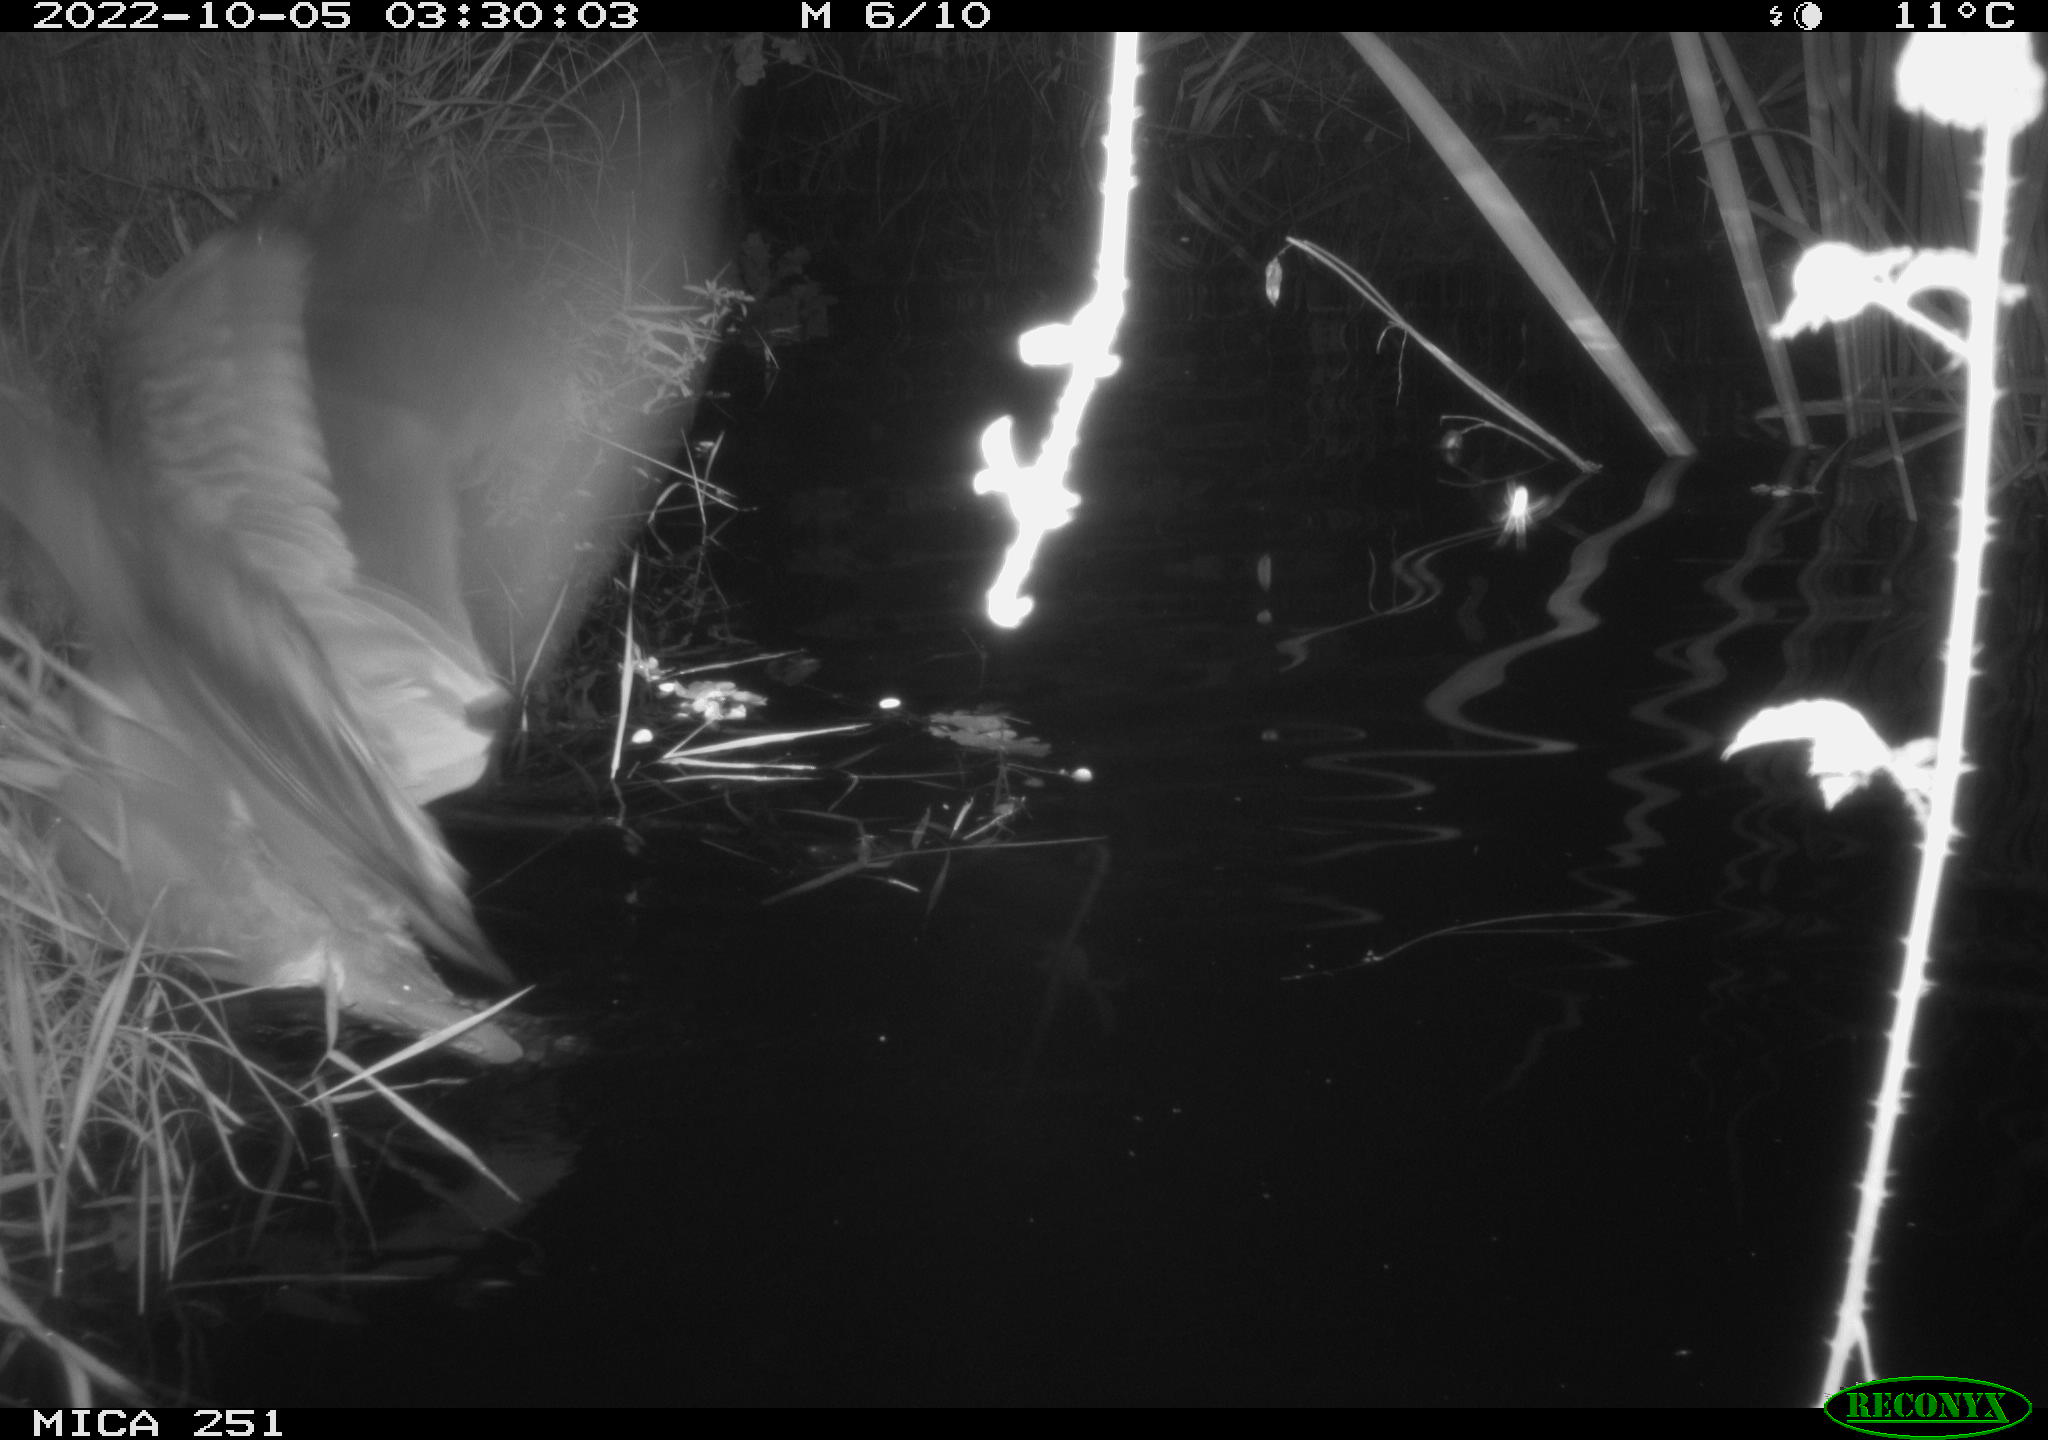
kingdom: Animalia
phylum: Chordata
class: Aves
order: Pelecaniformes
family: Ardeidae
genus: Ardea
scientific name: Ardea cinerea
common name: Grey heron
